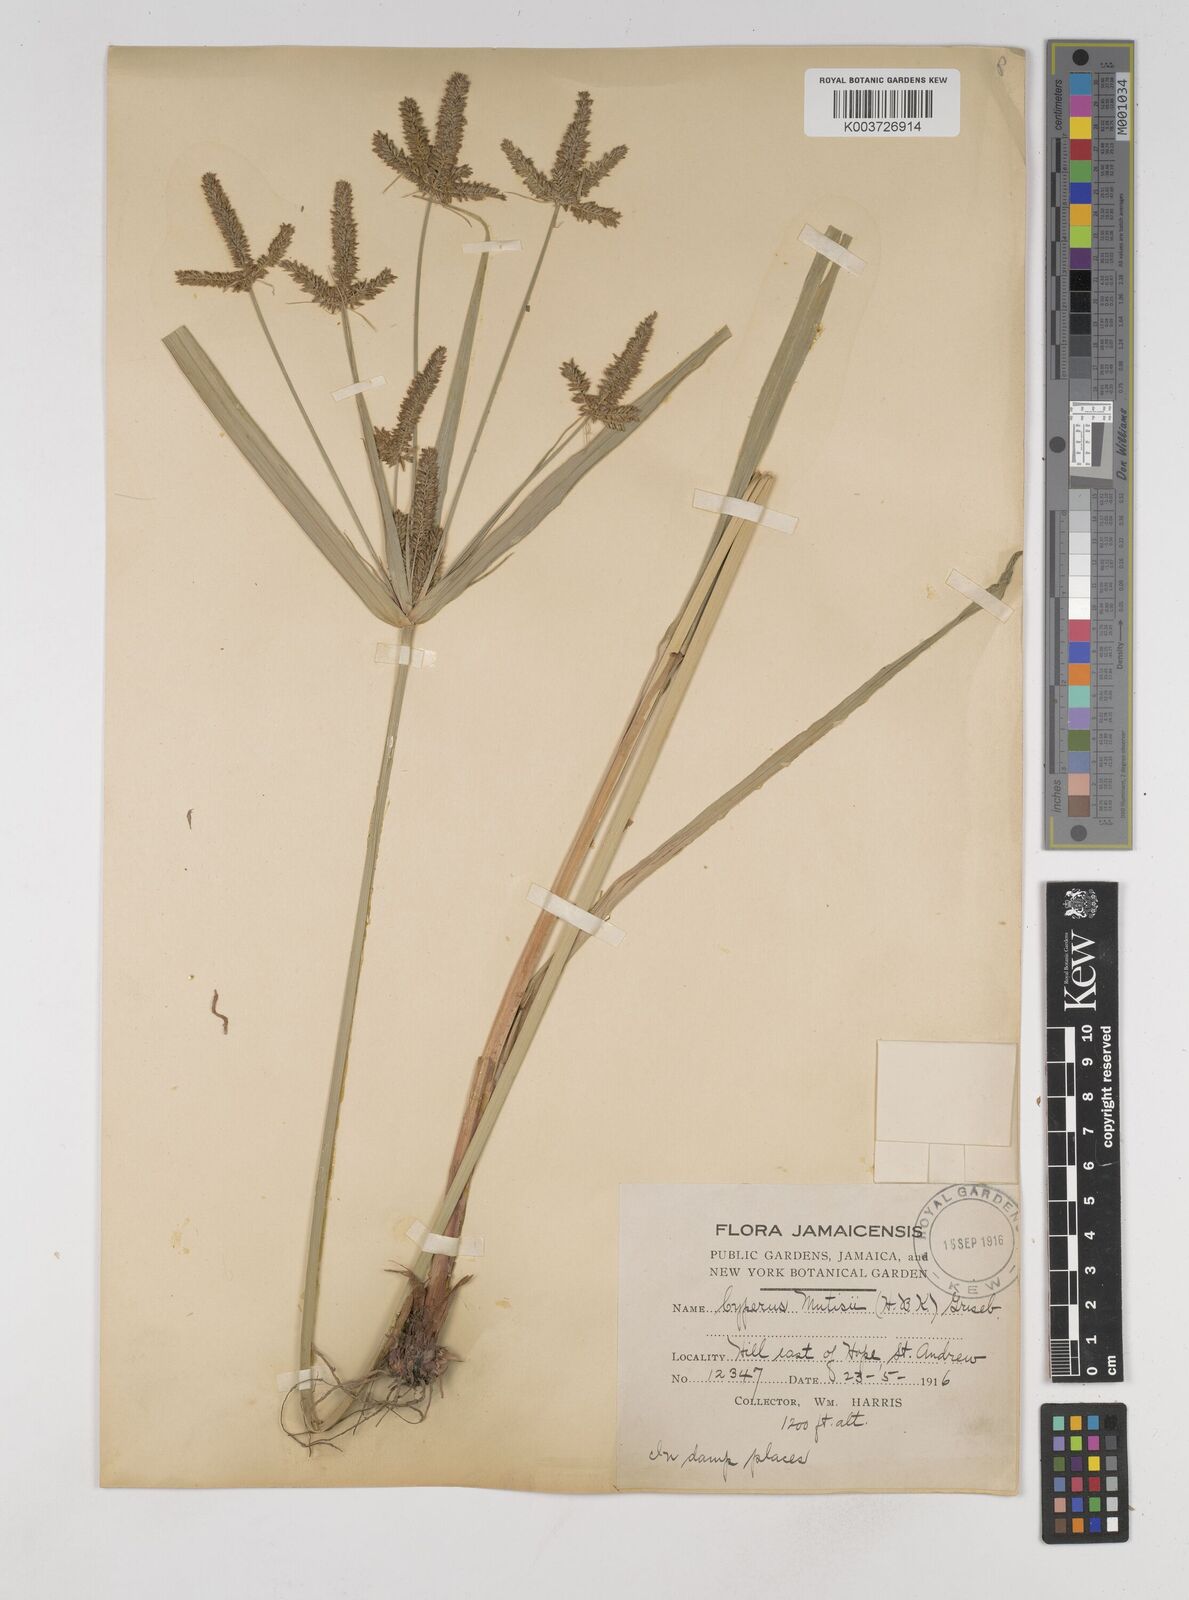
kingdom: Plantae
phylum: Tracheophyta
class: Liliopsida
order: Poales
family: Cyperaceae
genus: Cyperus
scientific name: Cyperus
